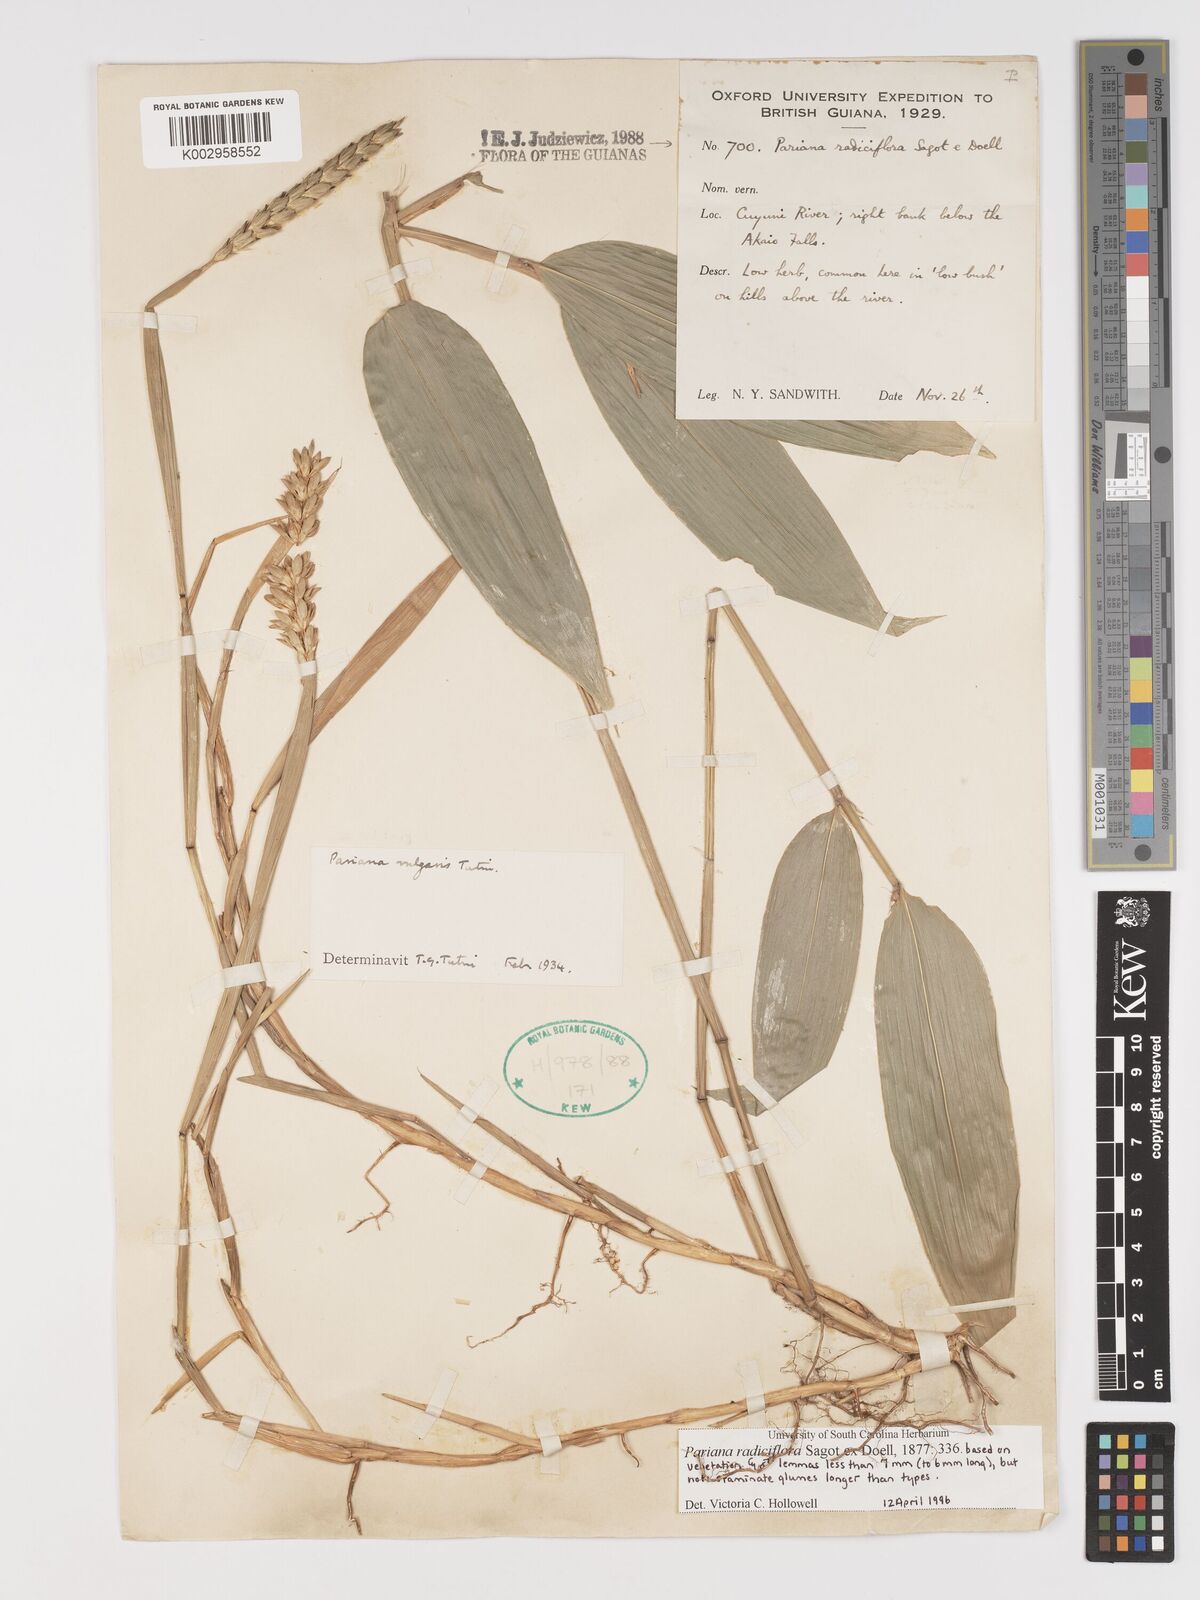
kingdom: Plantae
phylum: Tracheophyta
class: Liliopsida
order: Poales
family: Poaceae
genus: Pariana
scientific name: Pariana radiciflora
